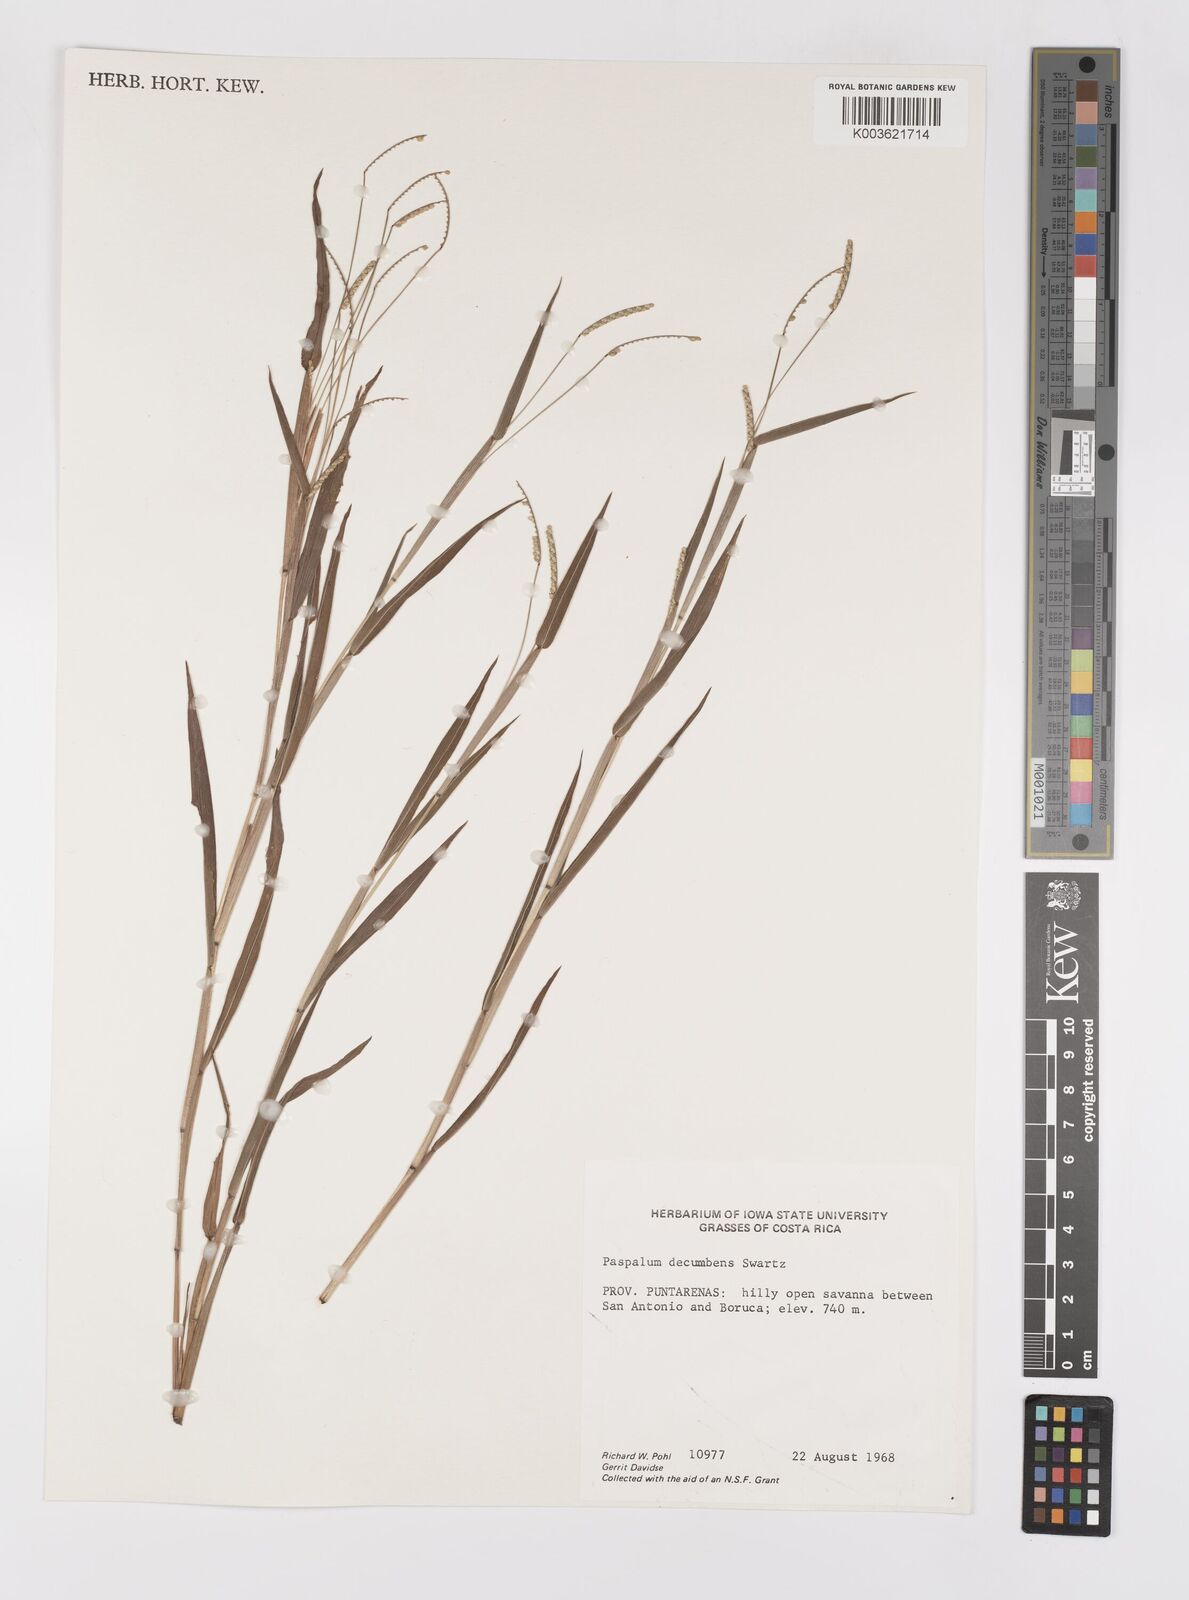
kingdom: Plantae
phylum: Tracheophyta
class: Liliopsida
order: Poales
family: Poaceae
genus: Paspalum
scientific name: Paspalum
